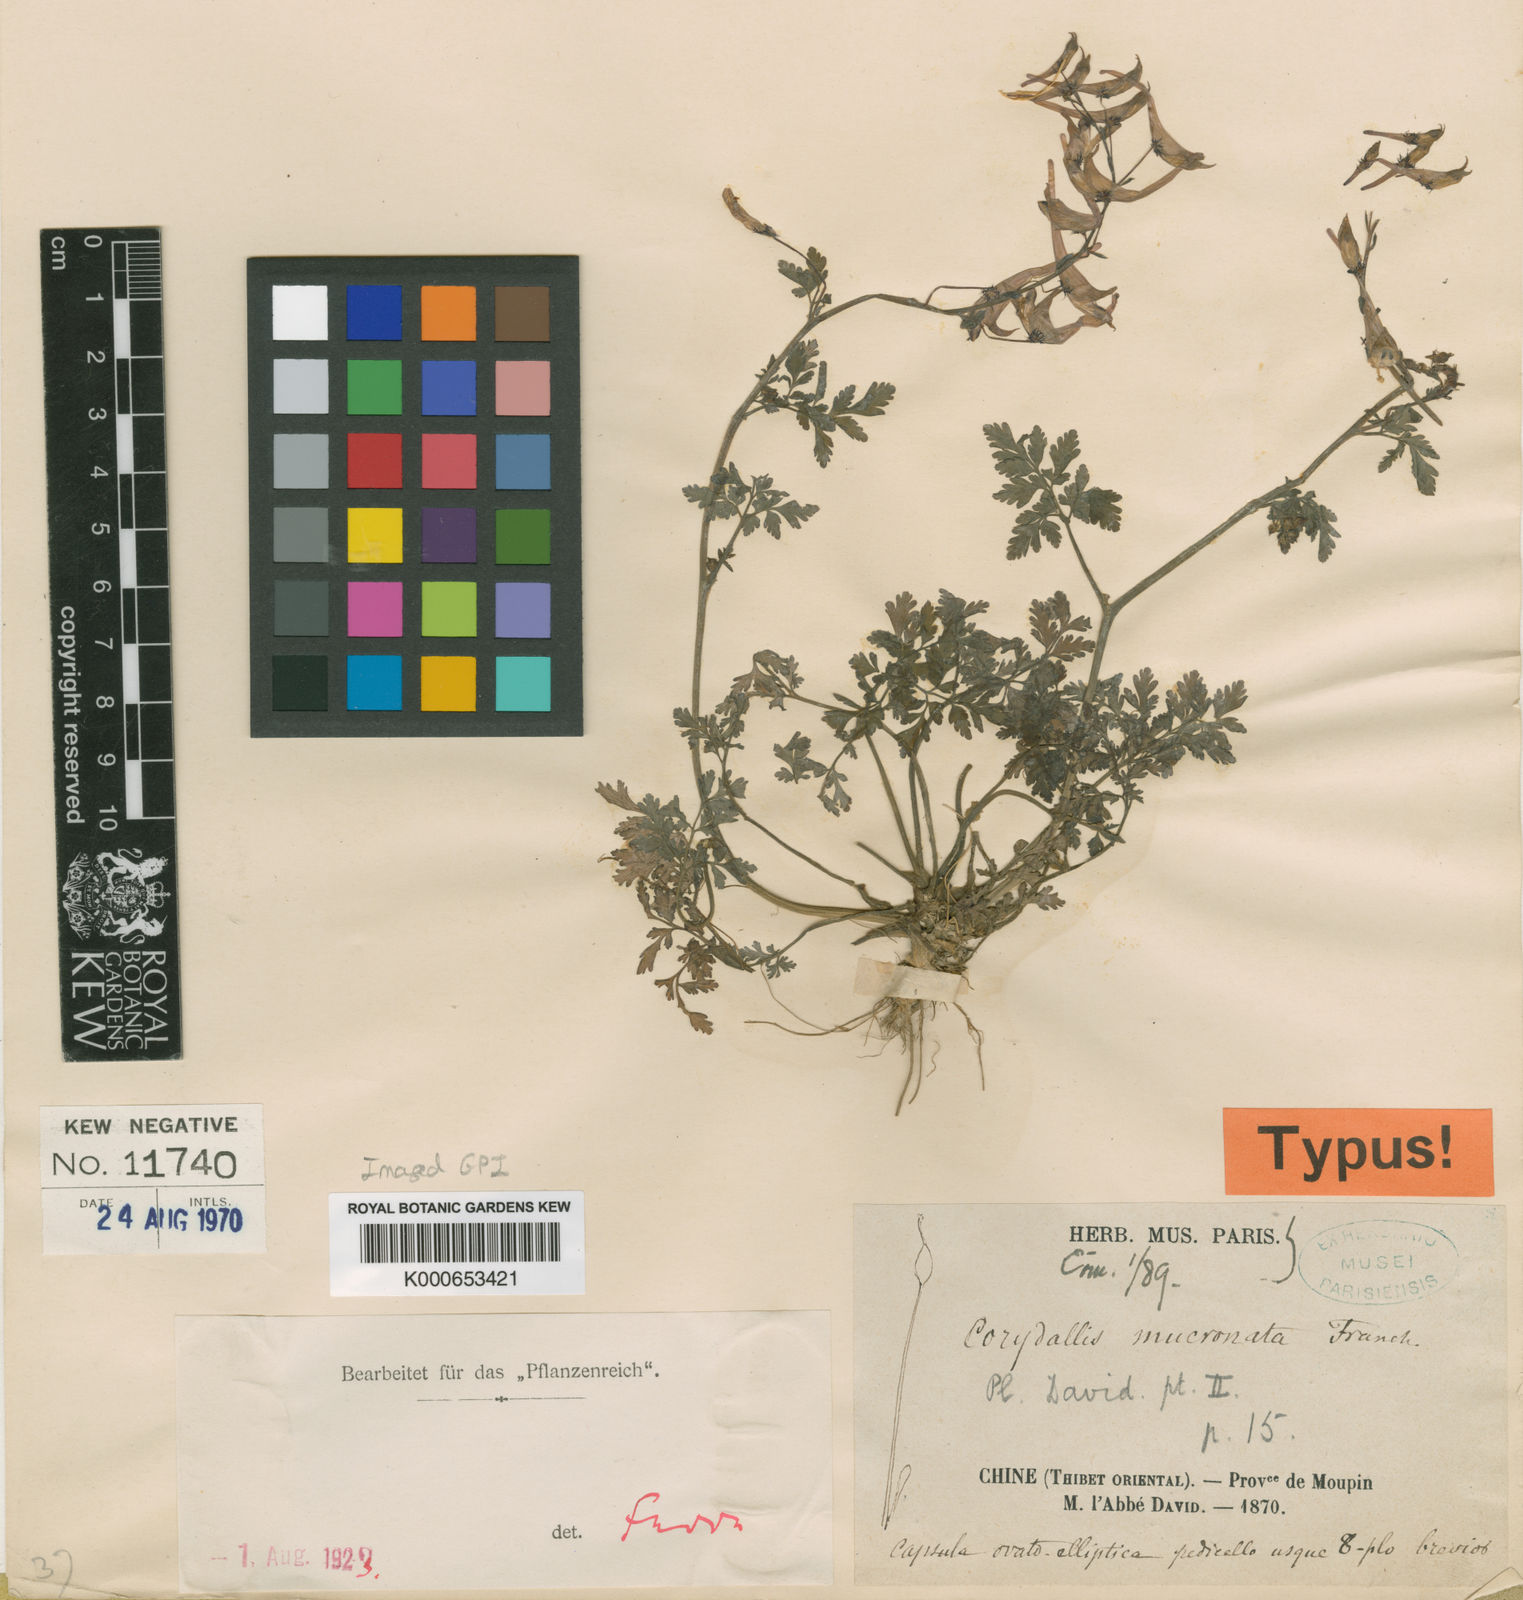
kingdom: Plantae
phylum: Tracheophyta
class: Magnoliopsida
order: Ranunculales
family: Papaveraceae
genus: Corydalis
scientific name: Corydalis mucronata
